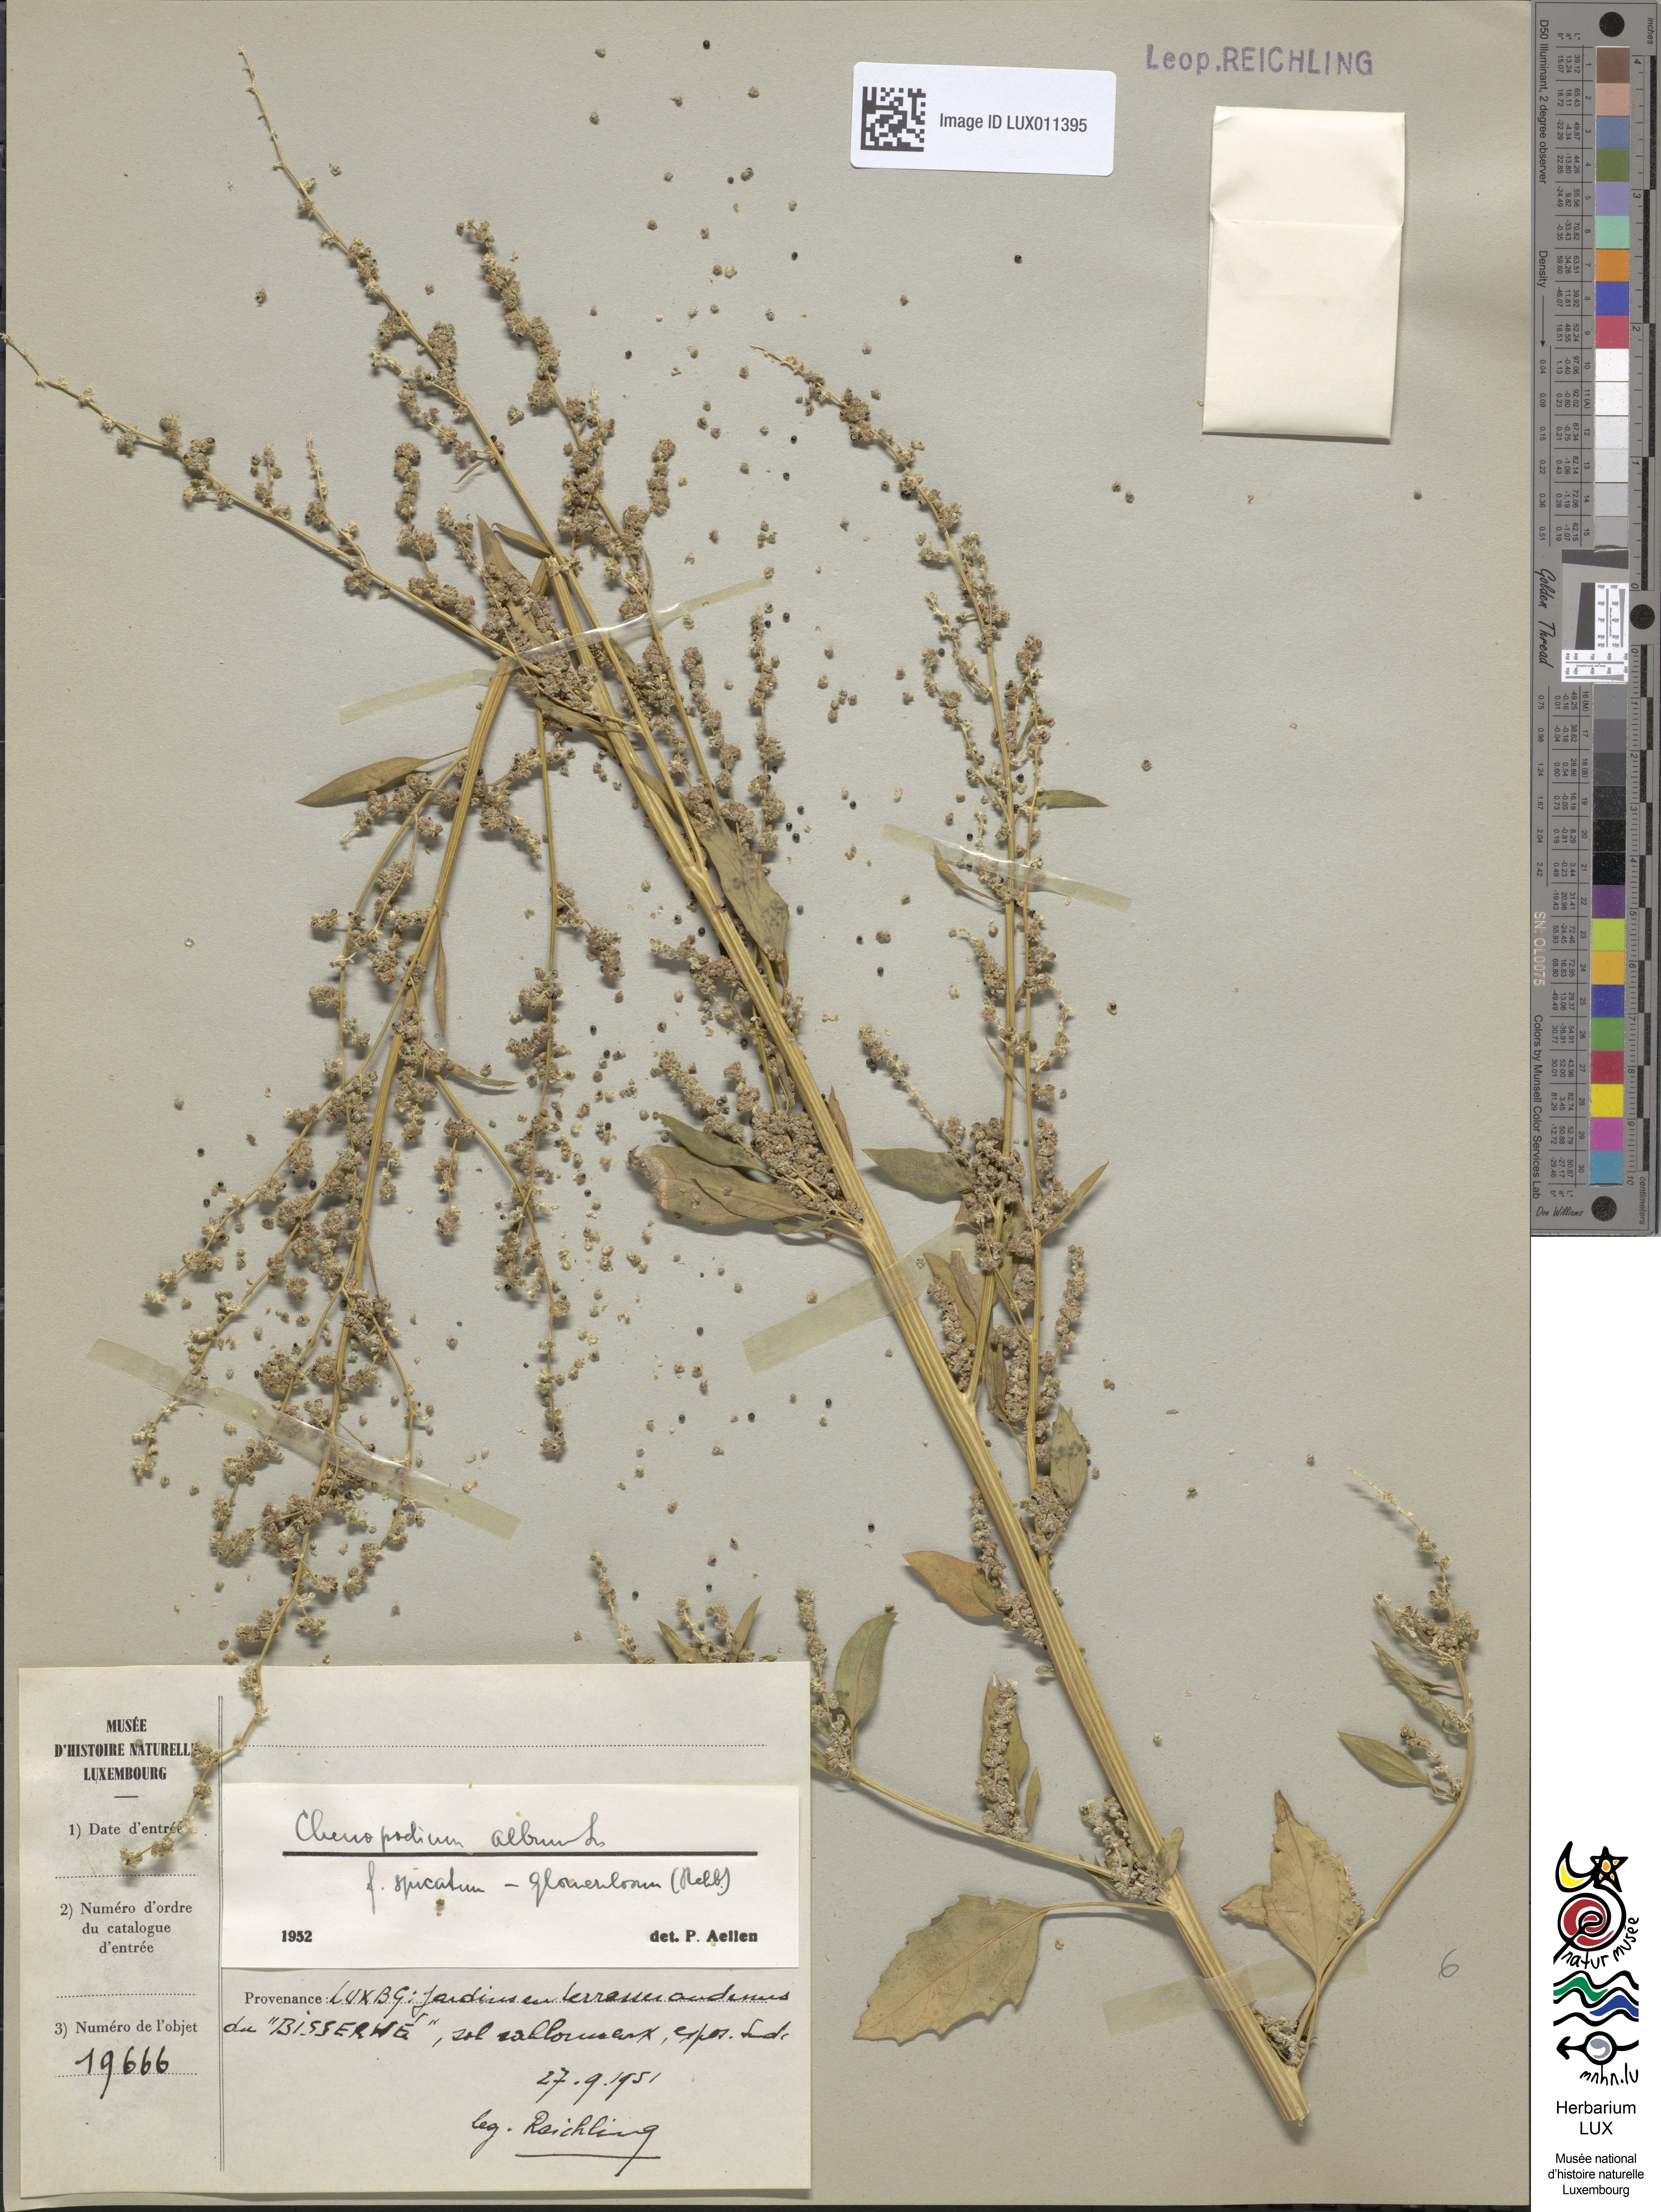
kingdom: Plantae
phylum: Tracheophyta
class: Magnoliopsida
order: Caryophyllales
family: Amaranthaceae
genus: Chenopodium
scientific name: Chenopodium album
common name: Fat-hen
